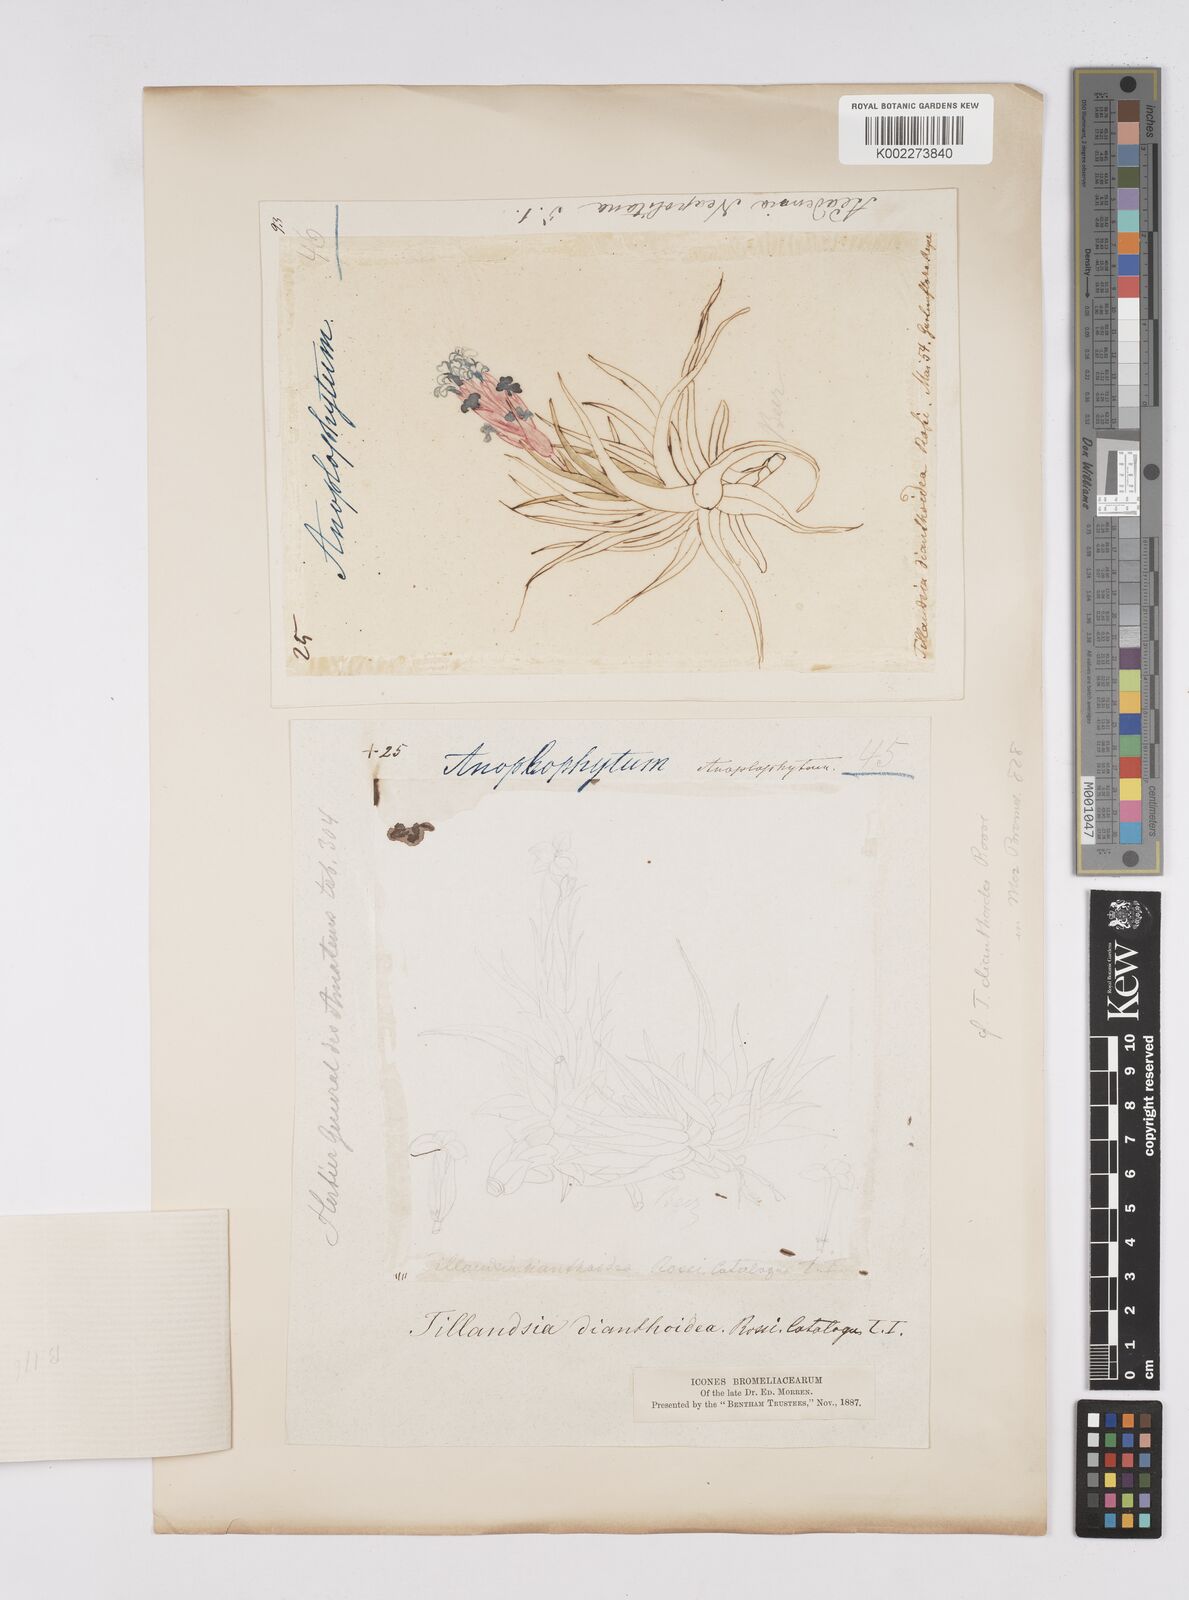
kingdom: Plantae
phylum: Tracheophyta
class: Liliopsida
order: Poales
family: Bromeliaceae
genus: Tillandsia
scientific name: Tillandsia
